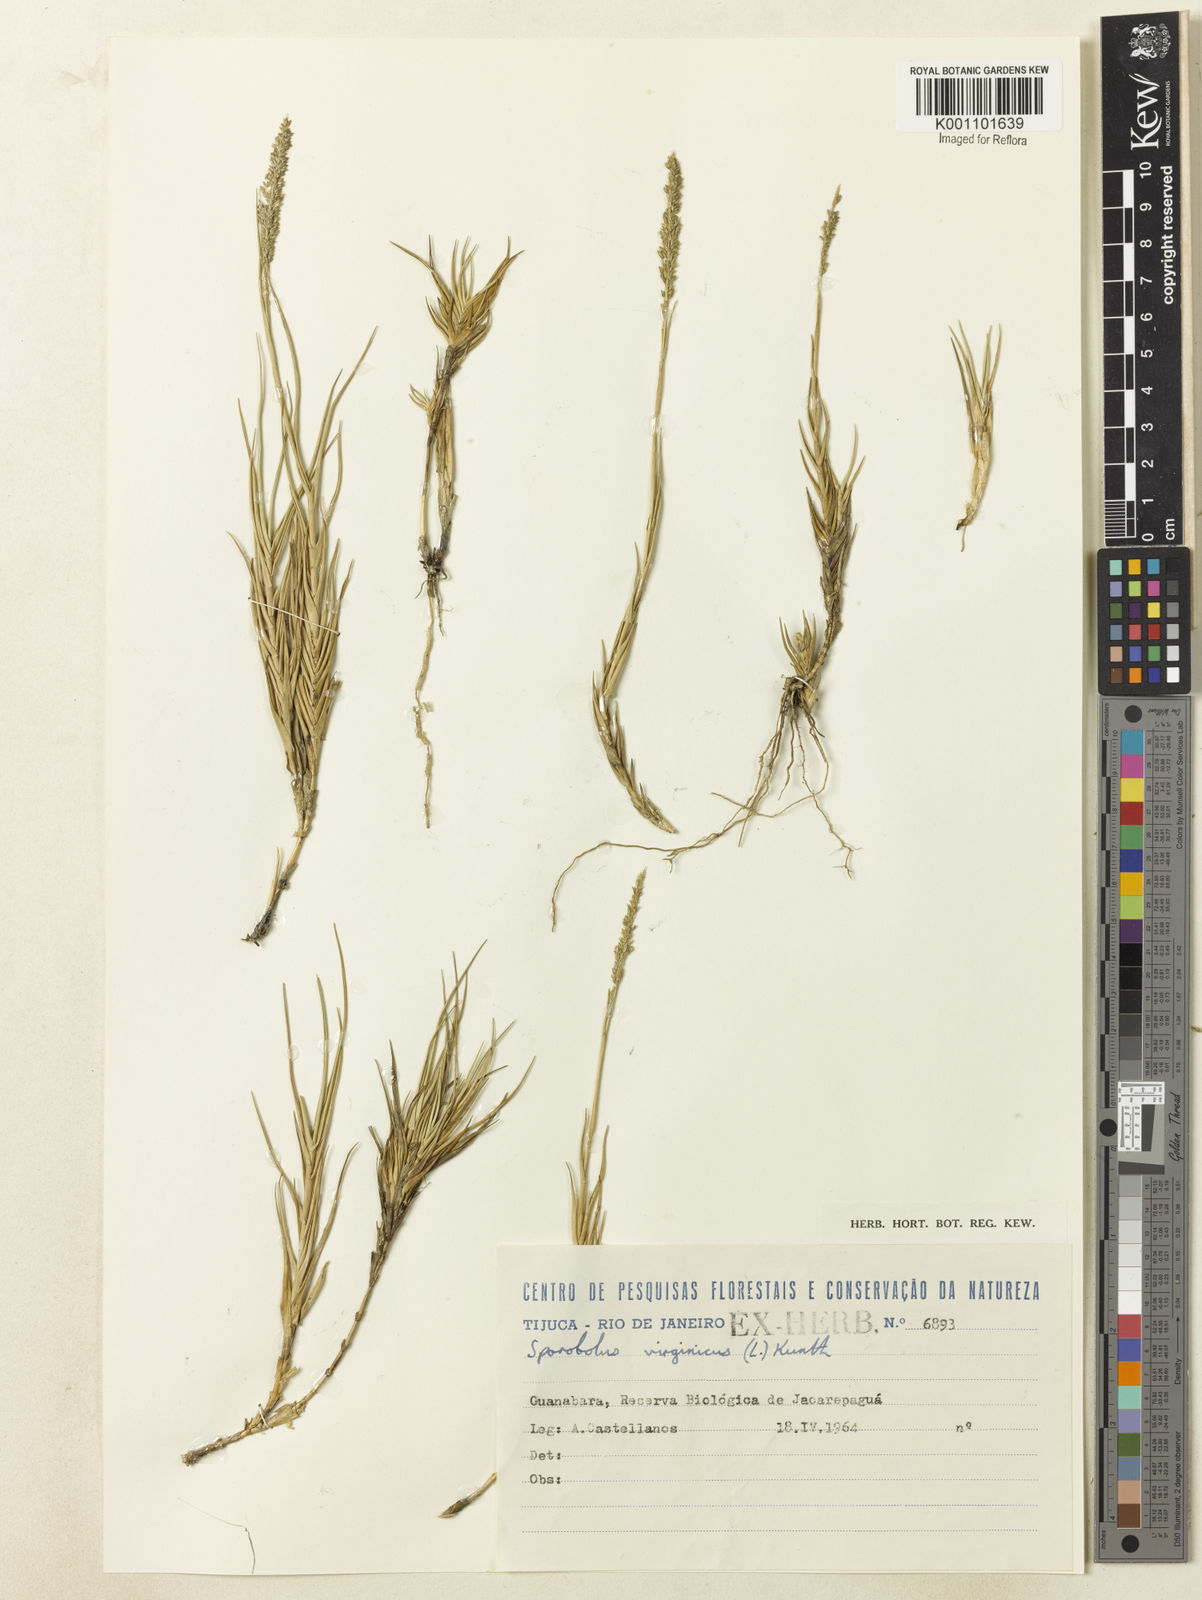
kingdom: Plantae
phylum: Tracheophyta
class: Liliopsida
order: Poales
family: Poaceae
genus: Sporobolus
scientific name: Sporobolus virginicus
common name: Beach dropseed
